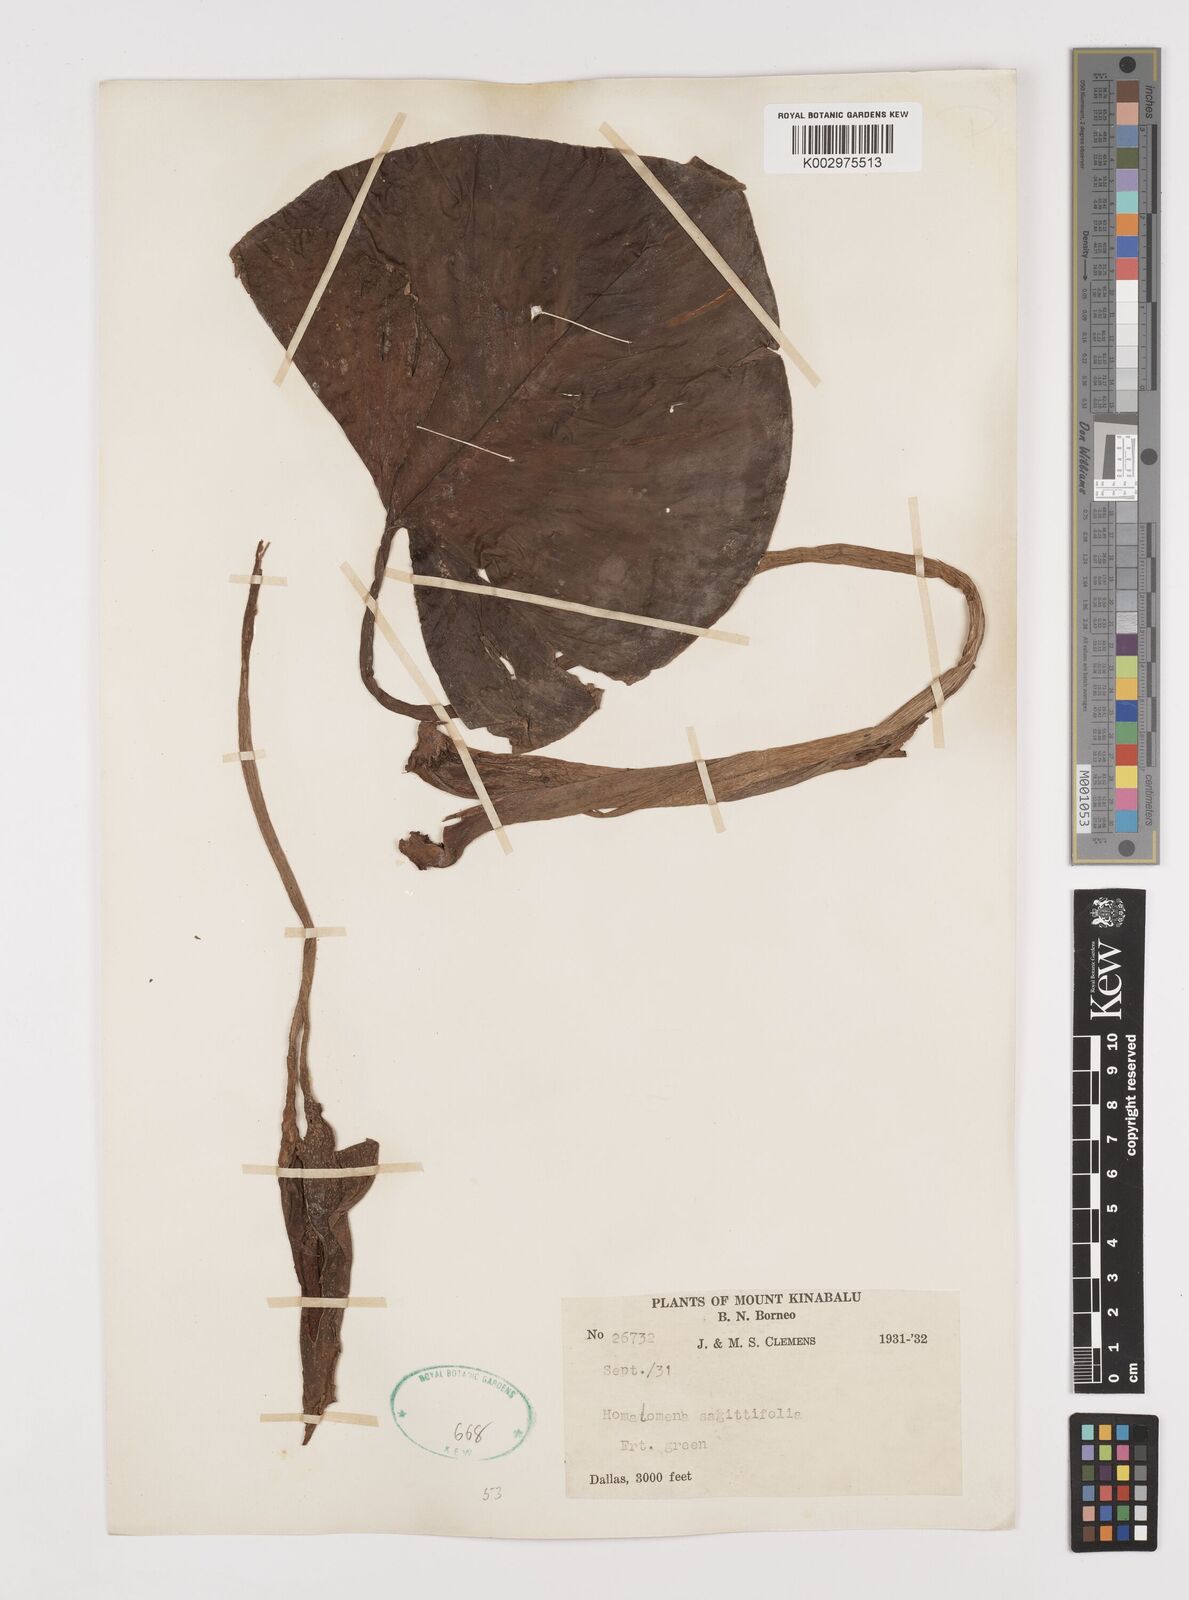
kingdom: Plantae
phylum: Tracheophyta
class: Liliopsida
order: Alismatales
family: Araceae
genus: Homalomena
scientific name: Homalomena rostrata
